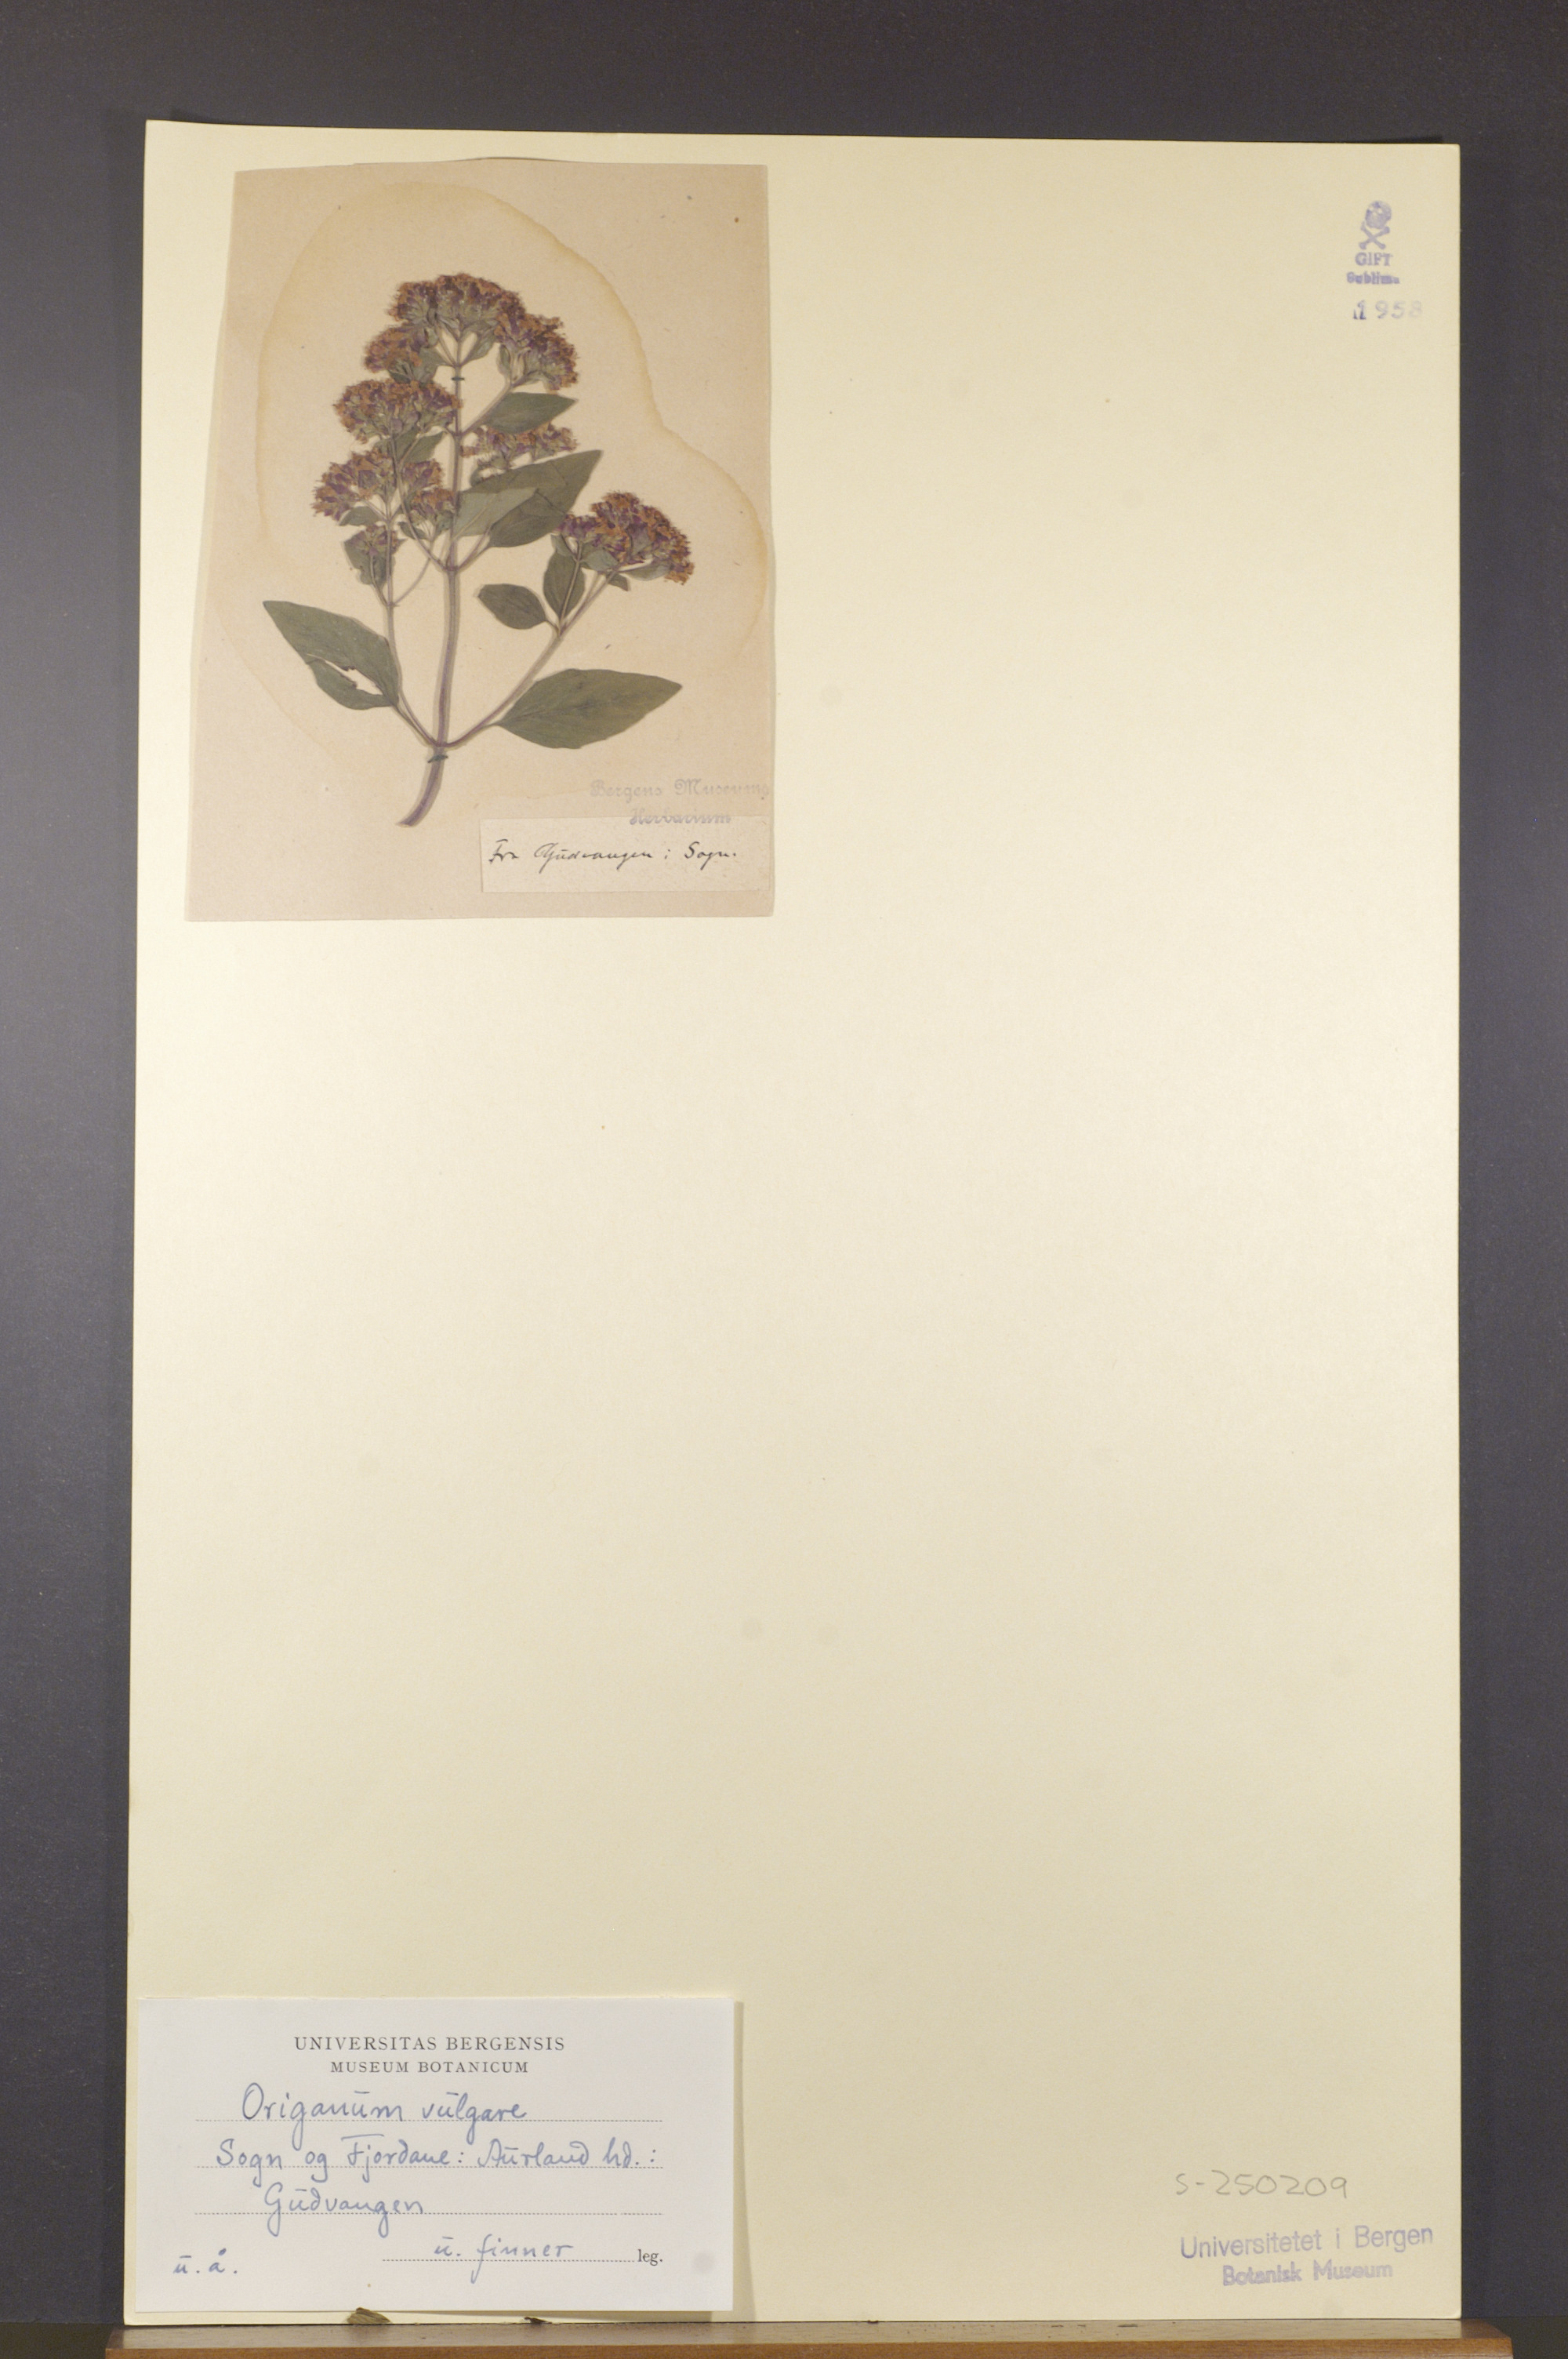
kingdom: Plantae
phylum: Tracheophyta
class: Magnoliopsida
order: Lamiales
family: Lamiaceae
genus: Origanum
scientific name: Origanum vulgare
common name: Wild marjoram
